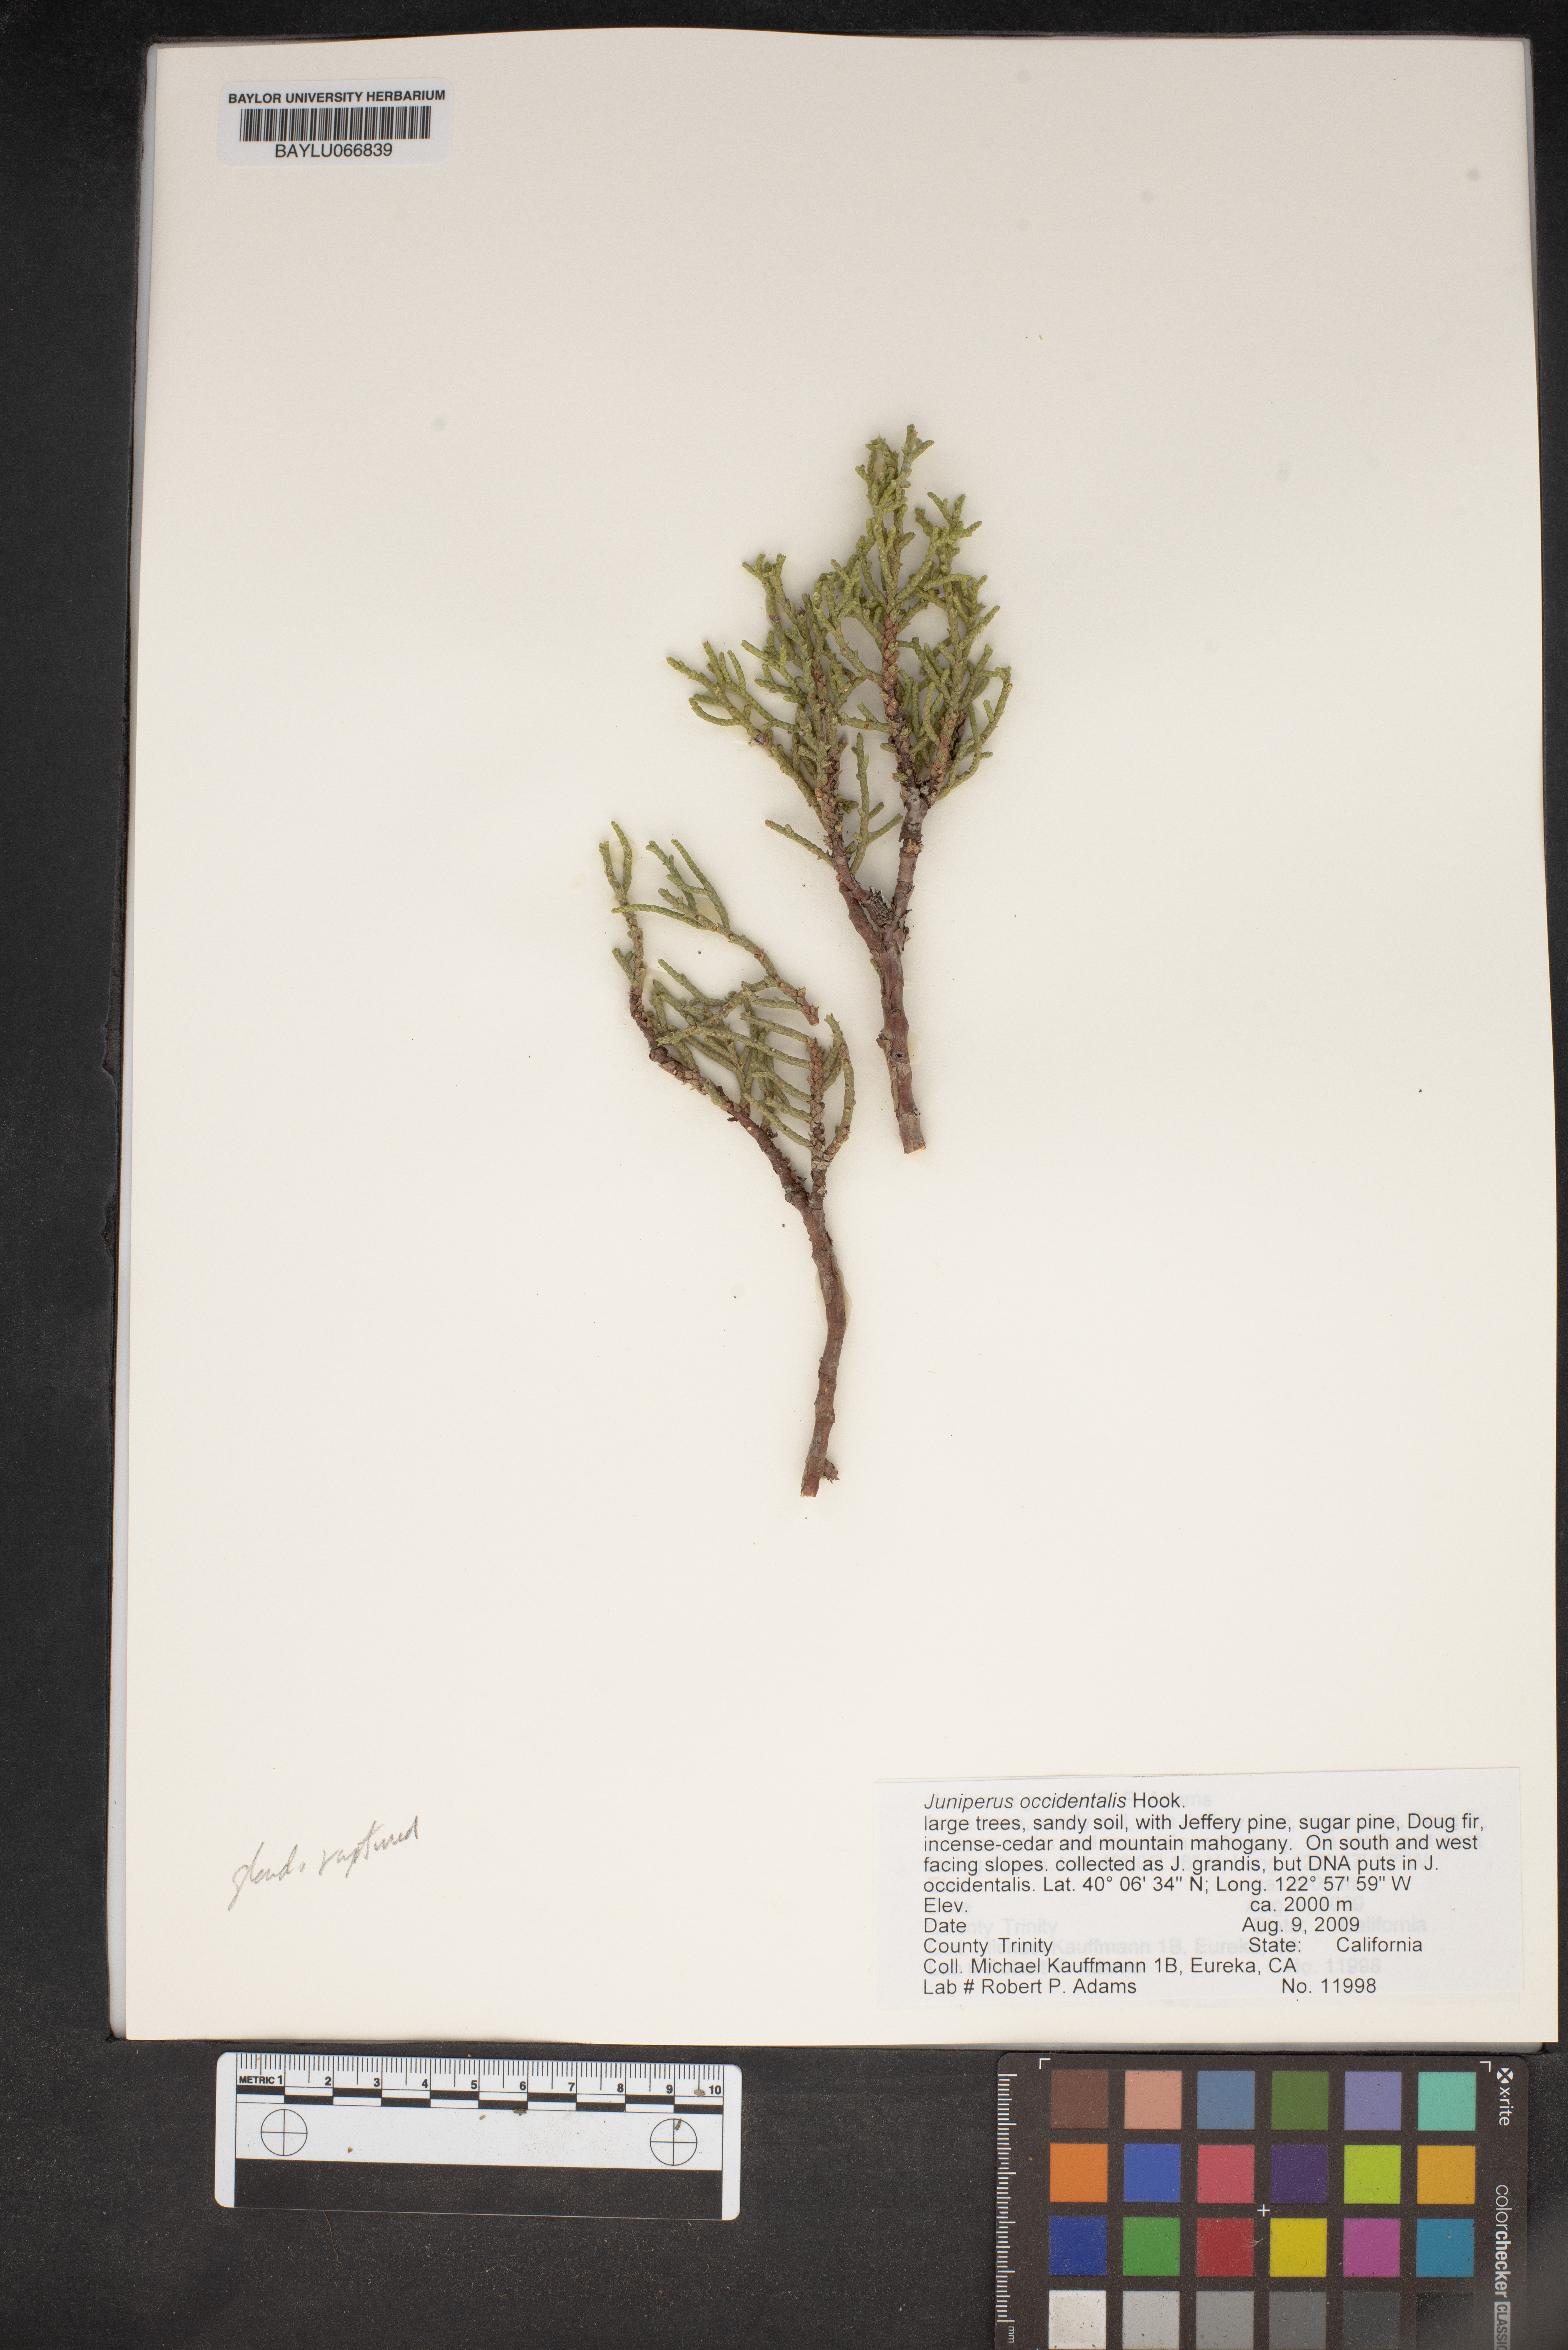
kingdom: Plantae
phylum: Tracheophyta
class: Pinopsida
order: Pinales
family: Cupressaceae
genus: Juniperus
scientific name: Juniperus occidentalis
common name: Western juniper
